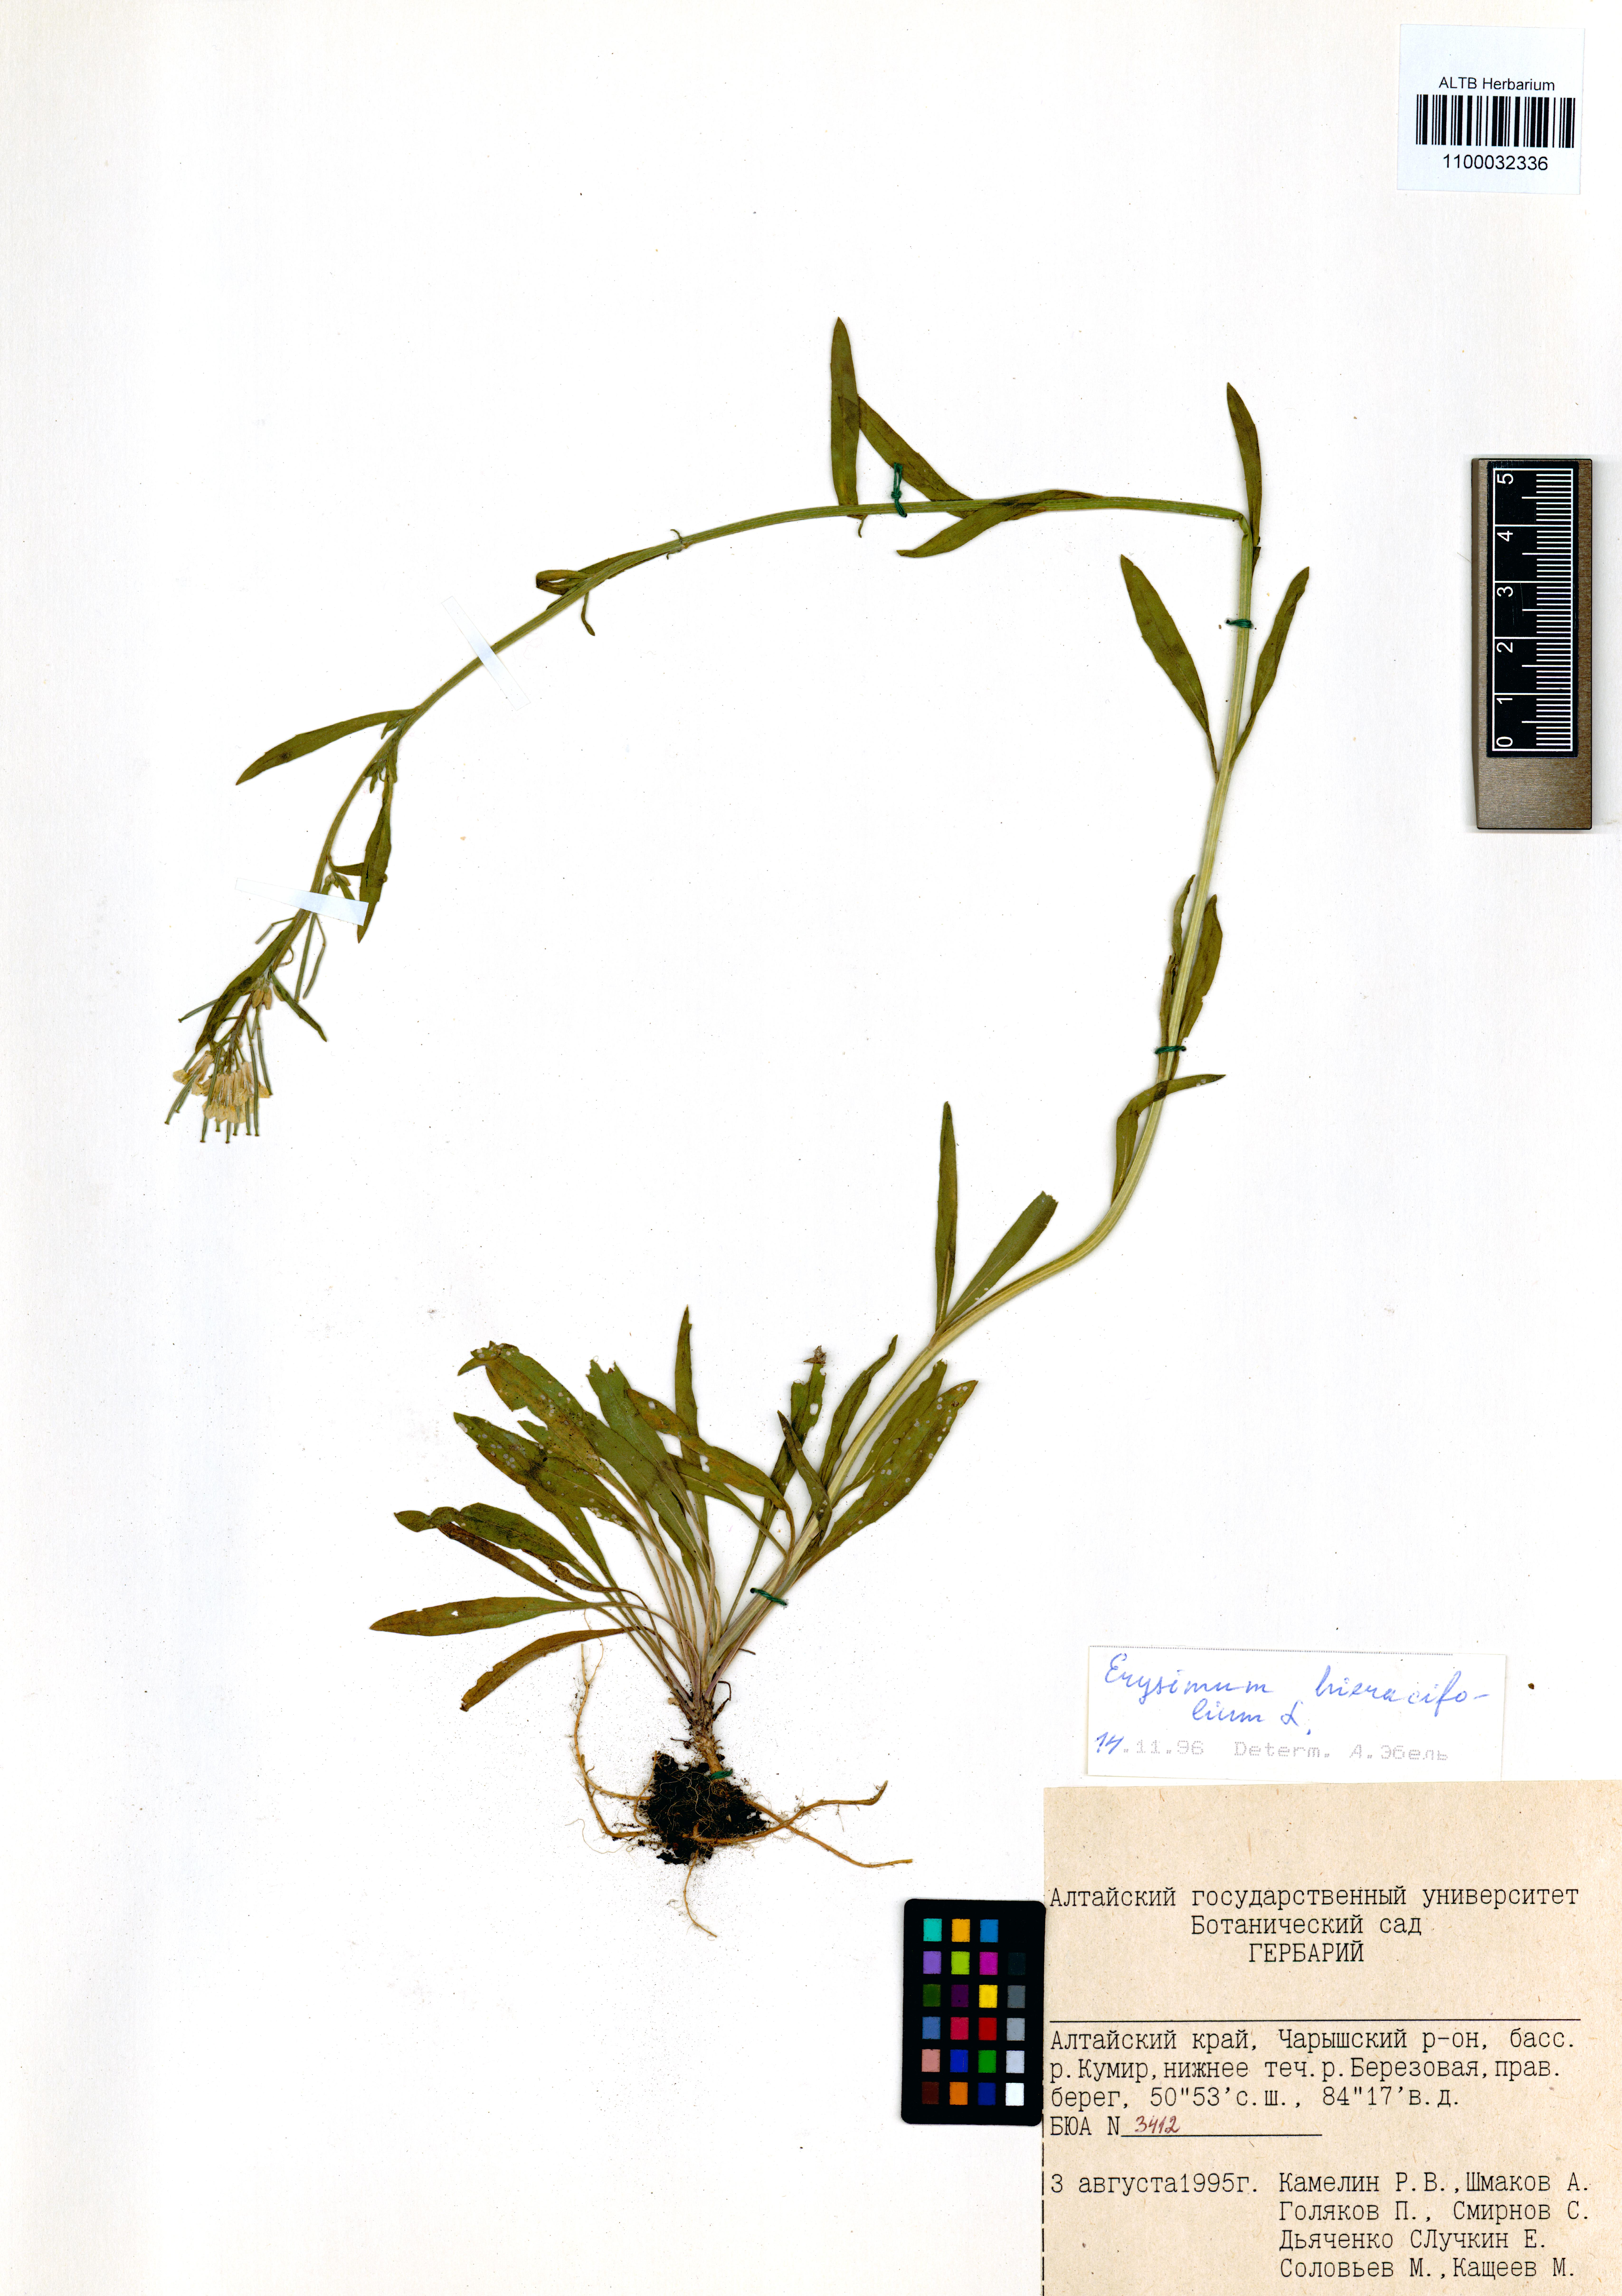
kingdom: Plantae
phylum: Tracheophyta
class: Magnoliopsida
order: Brassicales
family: Brassicaceae
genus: Erysimum
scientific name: Erysimum hieraciifolium
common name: European wallflower
